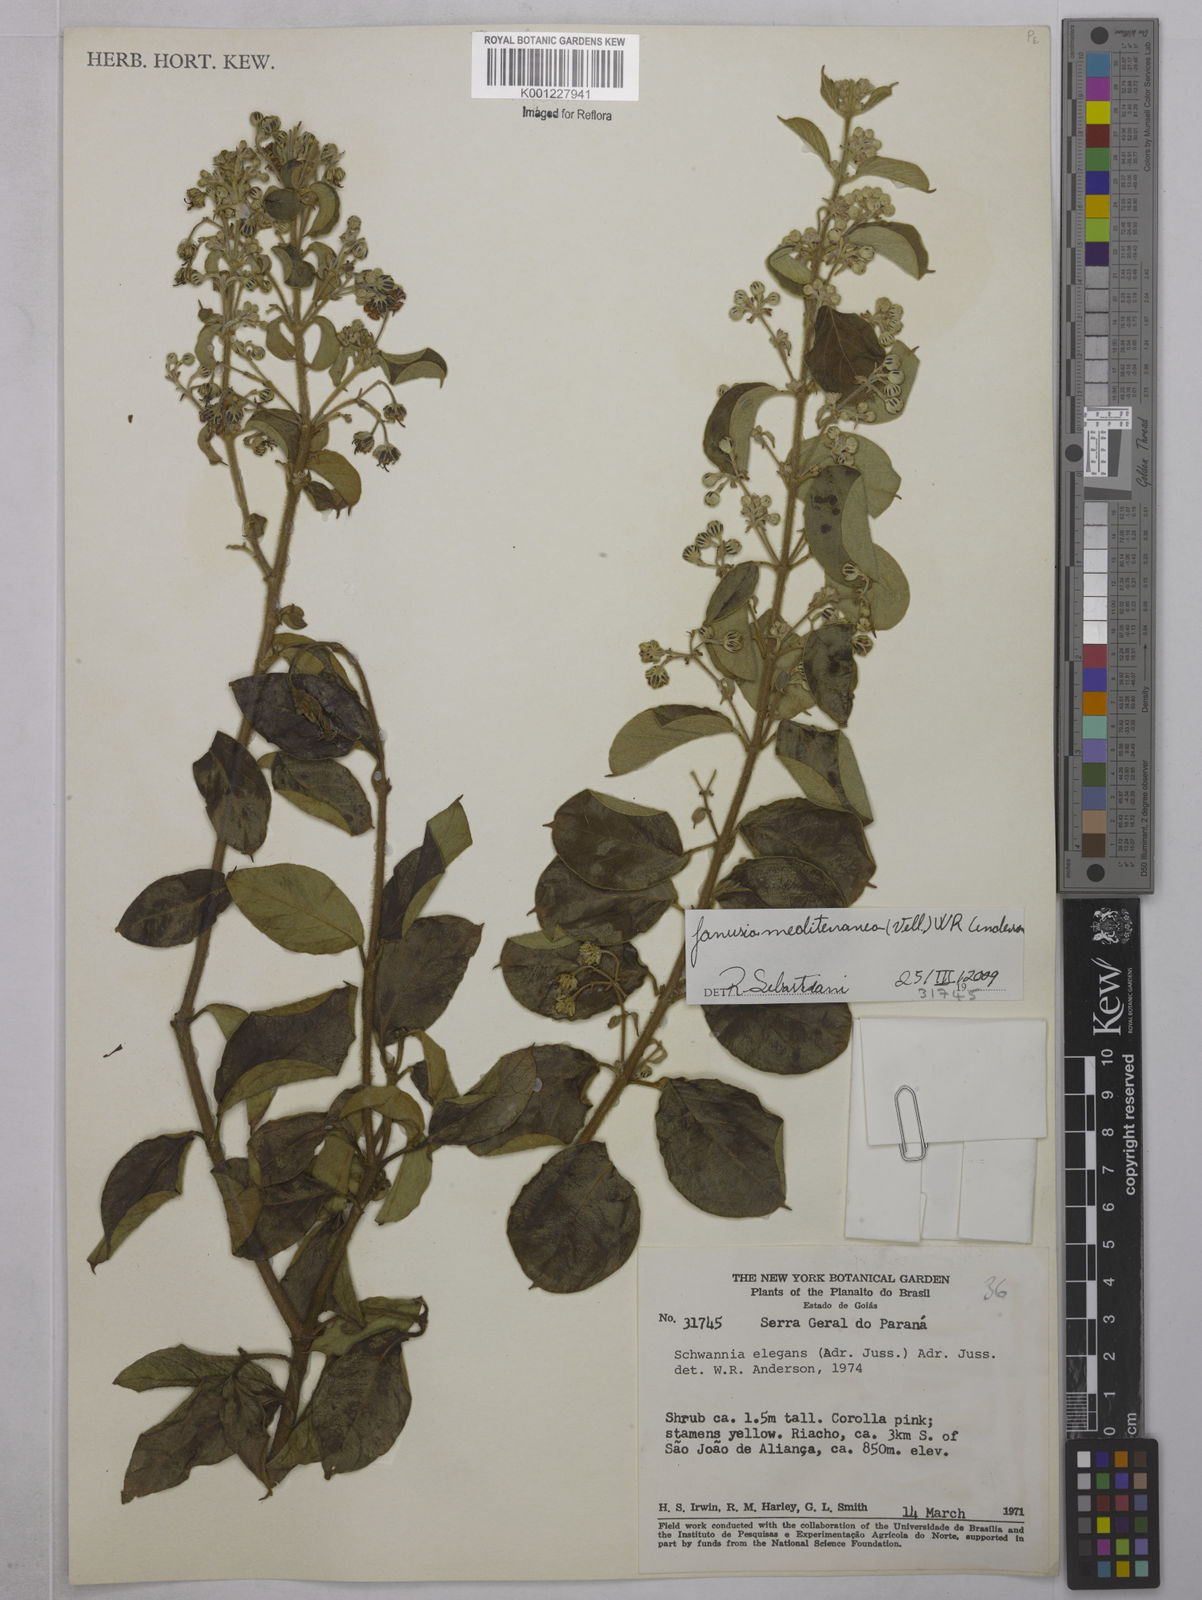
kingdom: Plantae
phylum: Tracheophyta
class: Magnoliopsida
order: Malpighiales
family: Malpighiaceae
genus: Janusia
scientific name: Janusia mediterranea
